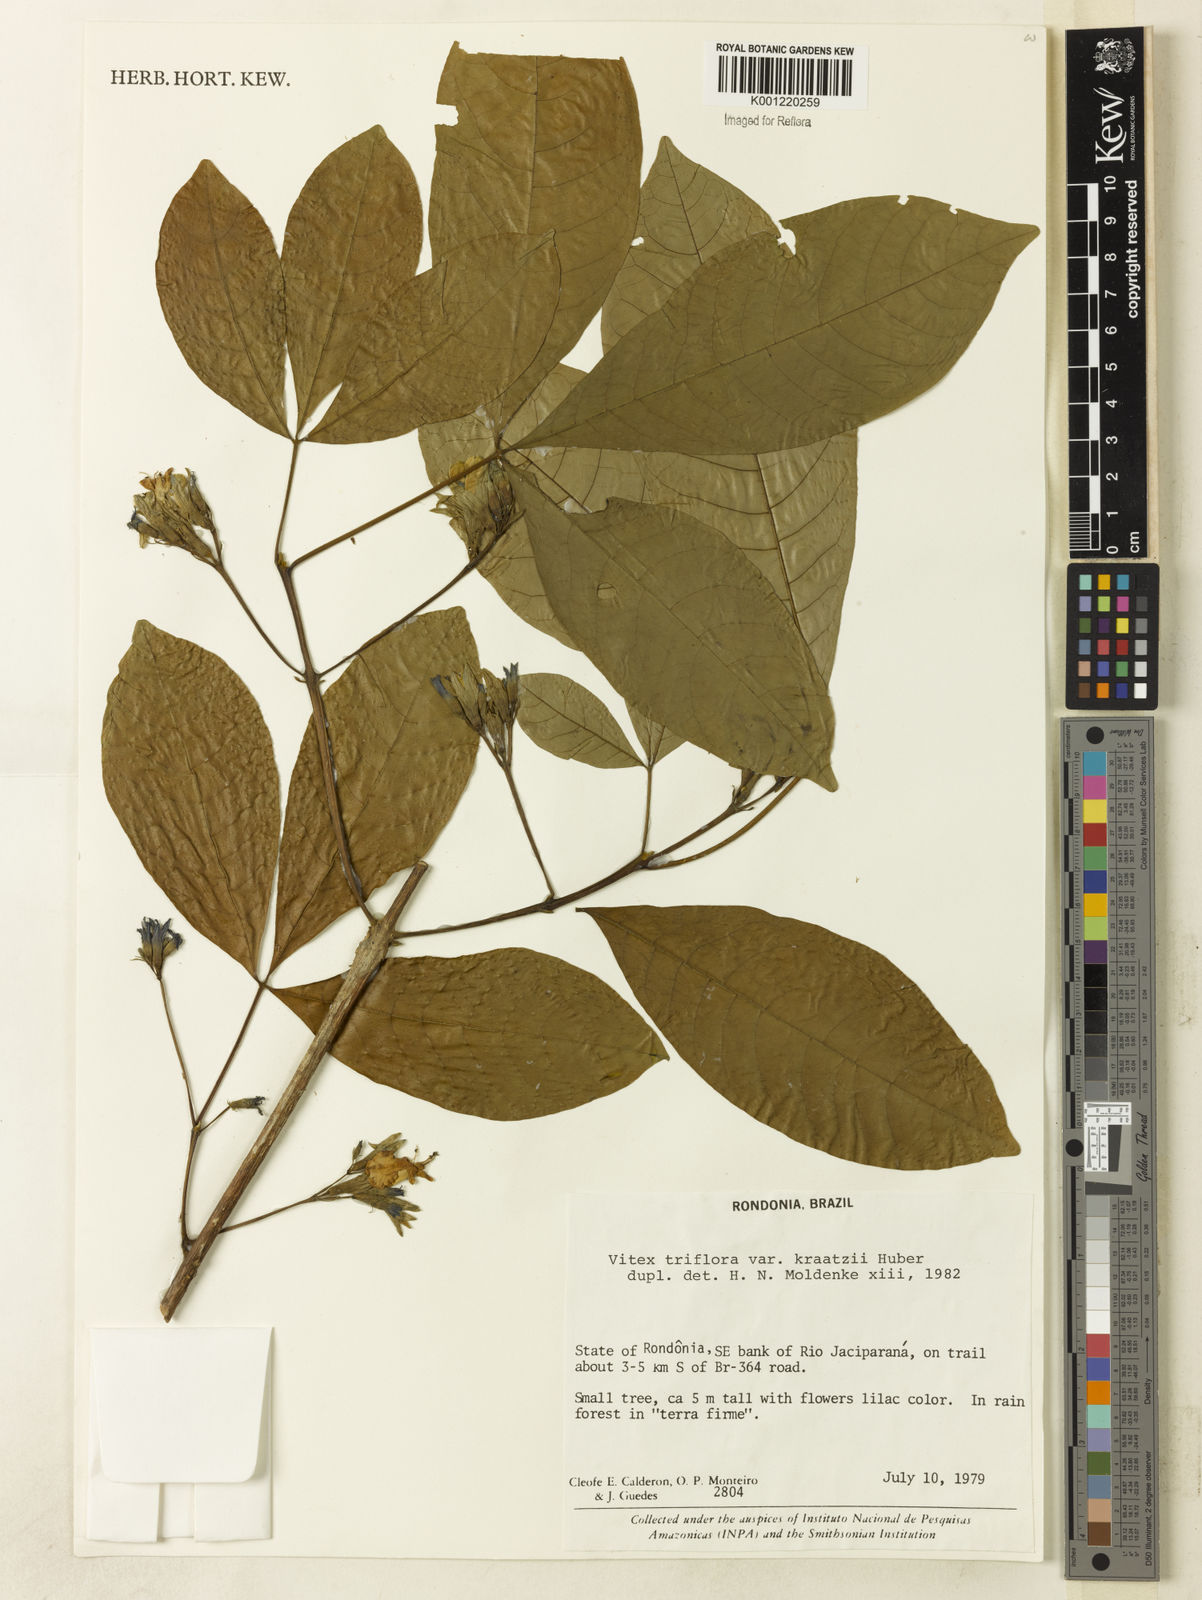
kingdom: Plantae
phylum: Tracheophyta
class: Magnoliopsida
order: Lamiales
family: Lamiaceae
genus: Vitex
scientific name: Vitex triflora
